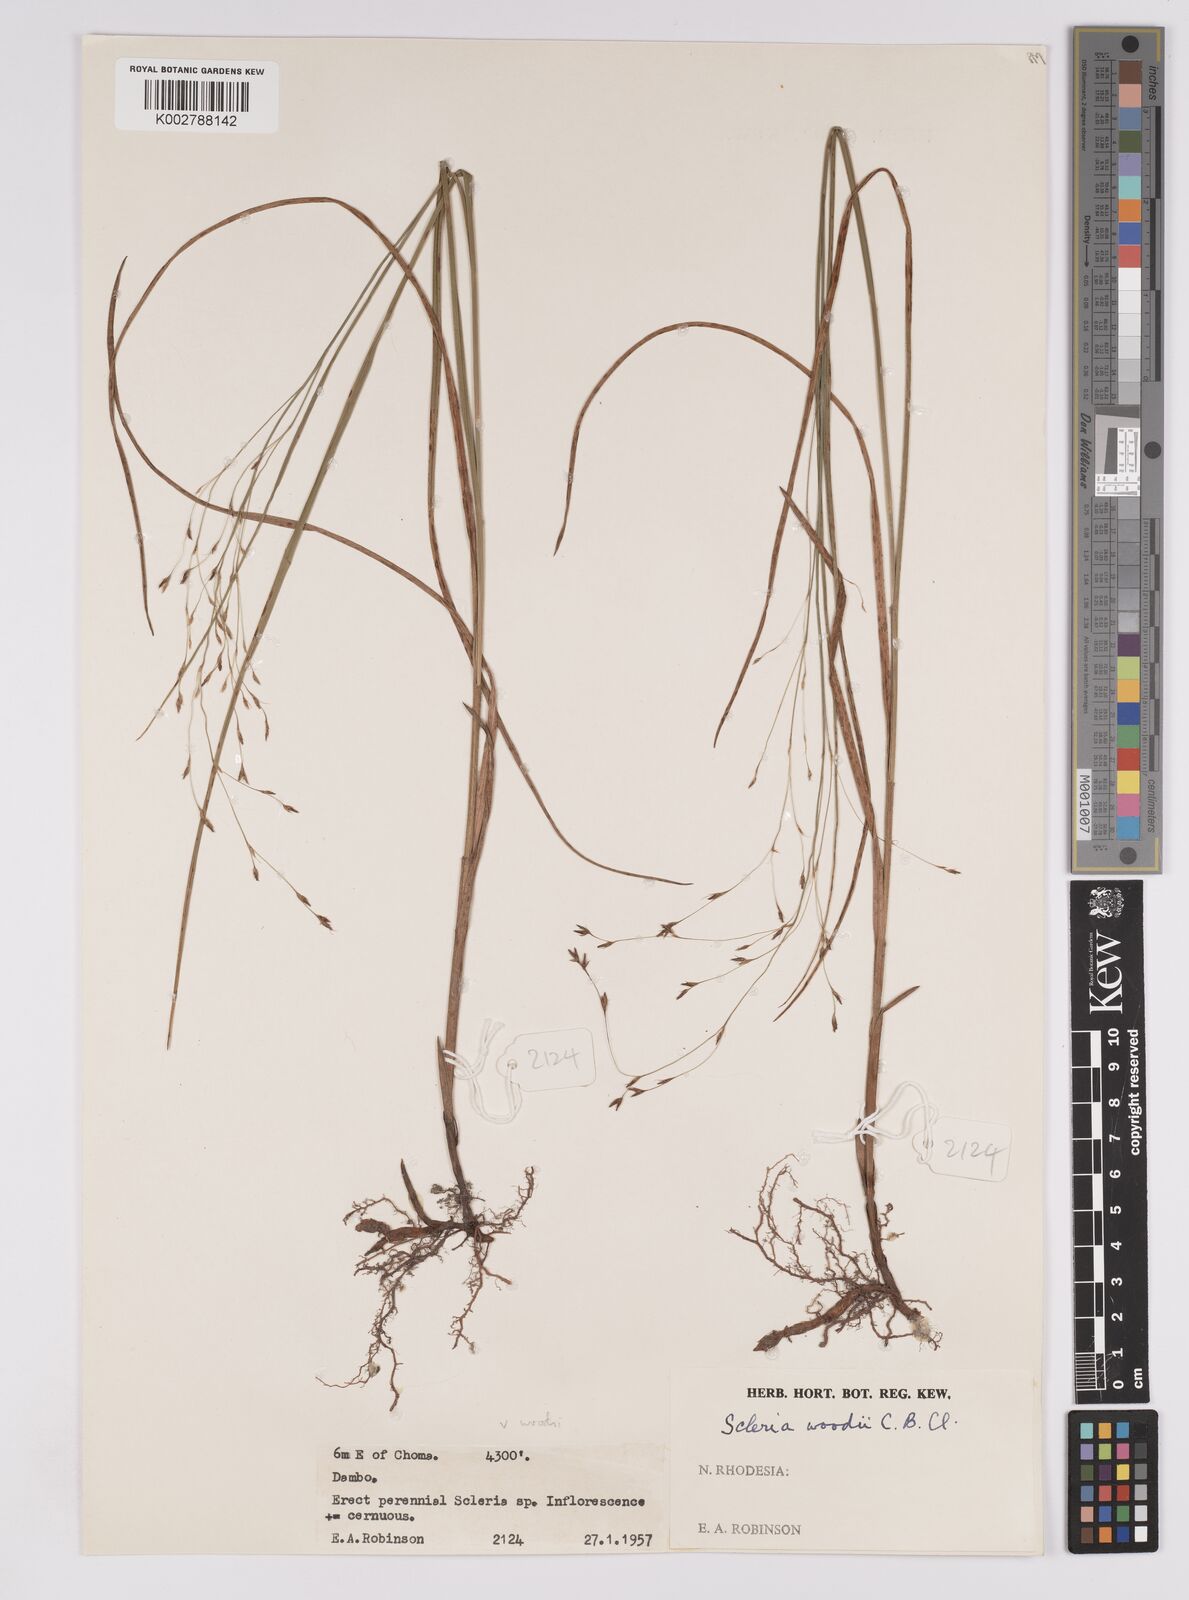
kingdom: Plantae
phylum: Tracheophyta
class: Liliopsida
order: Poales
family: Cyperaceae
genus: Scleria
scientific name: Scleria woodii
